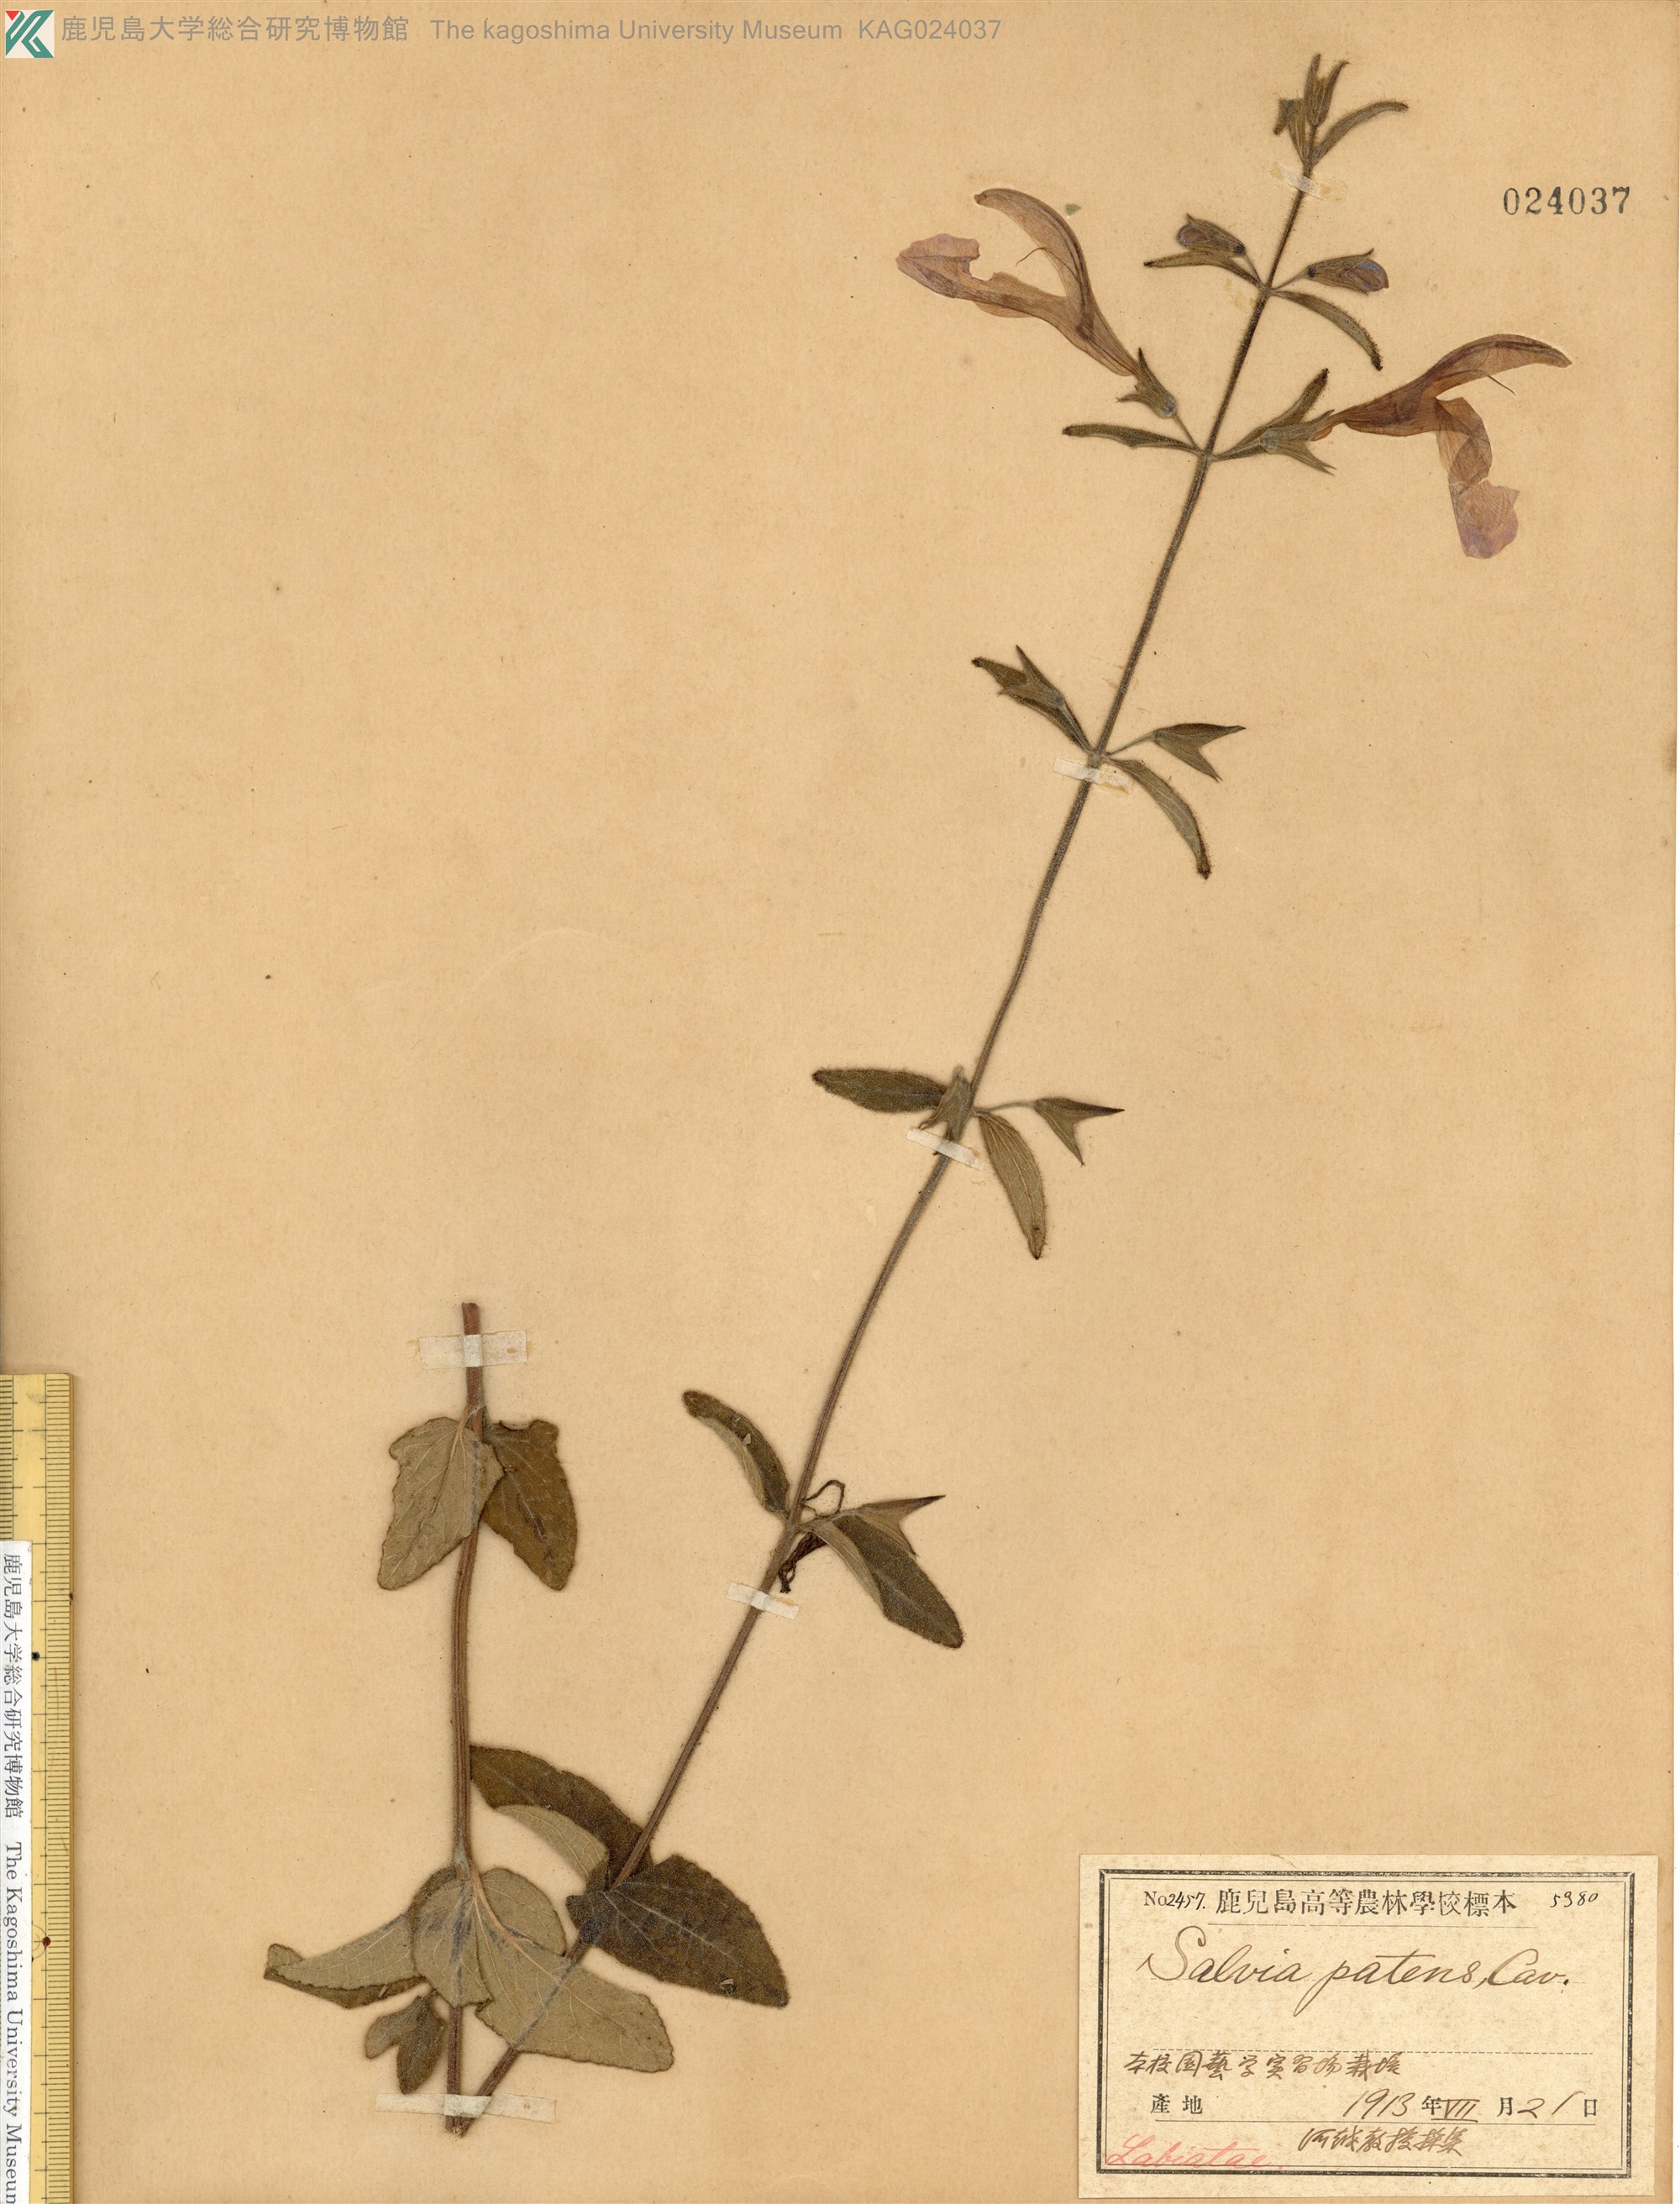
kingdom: Plantae
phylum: Tracheophyta
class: Magnoliopsida
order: Lamiales
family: Lamiaceae
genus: Salvia
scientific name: Salvia patens
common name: Blue sage
